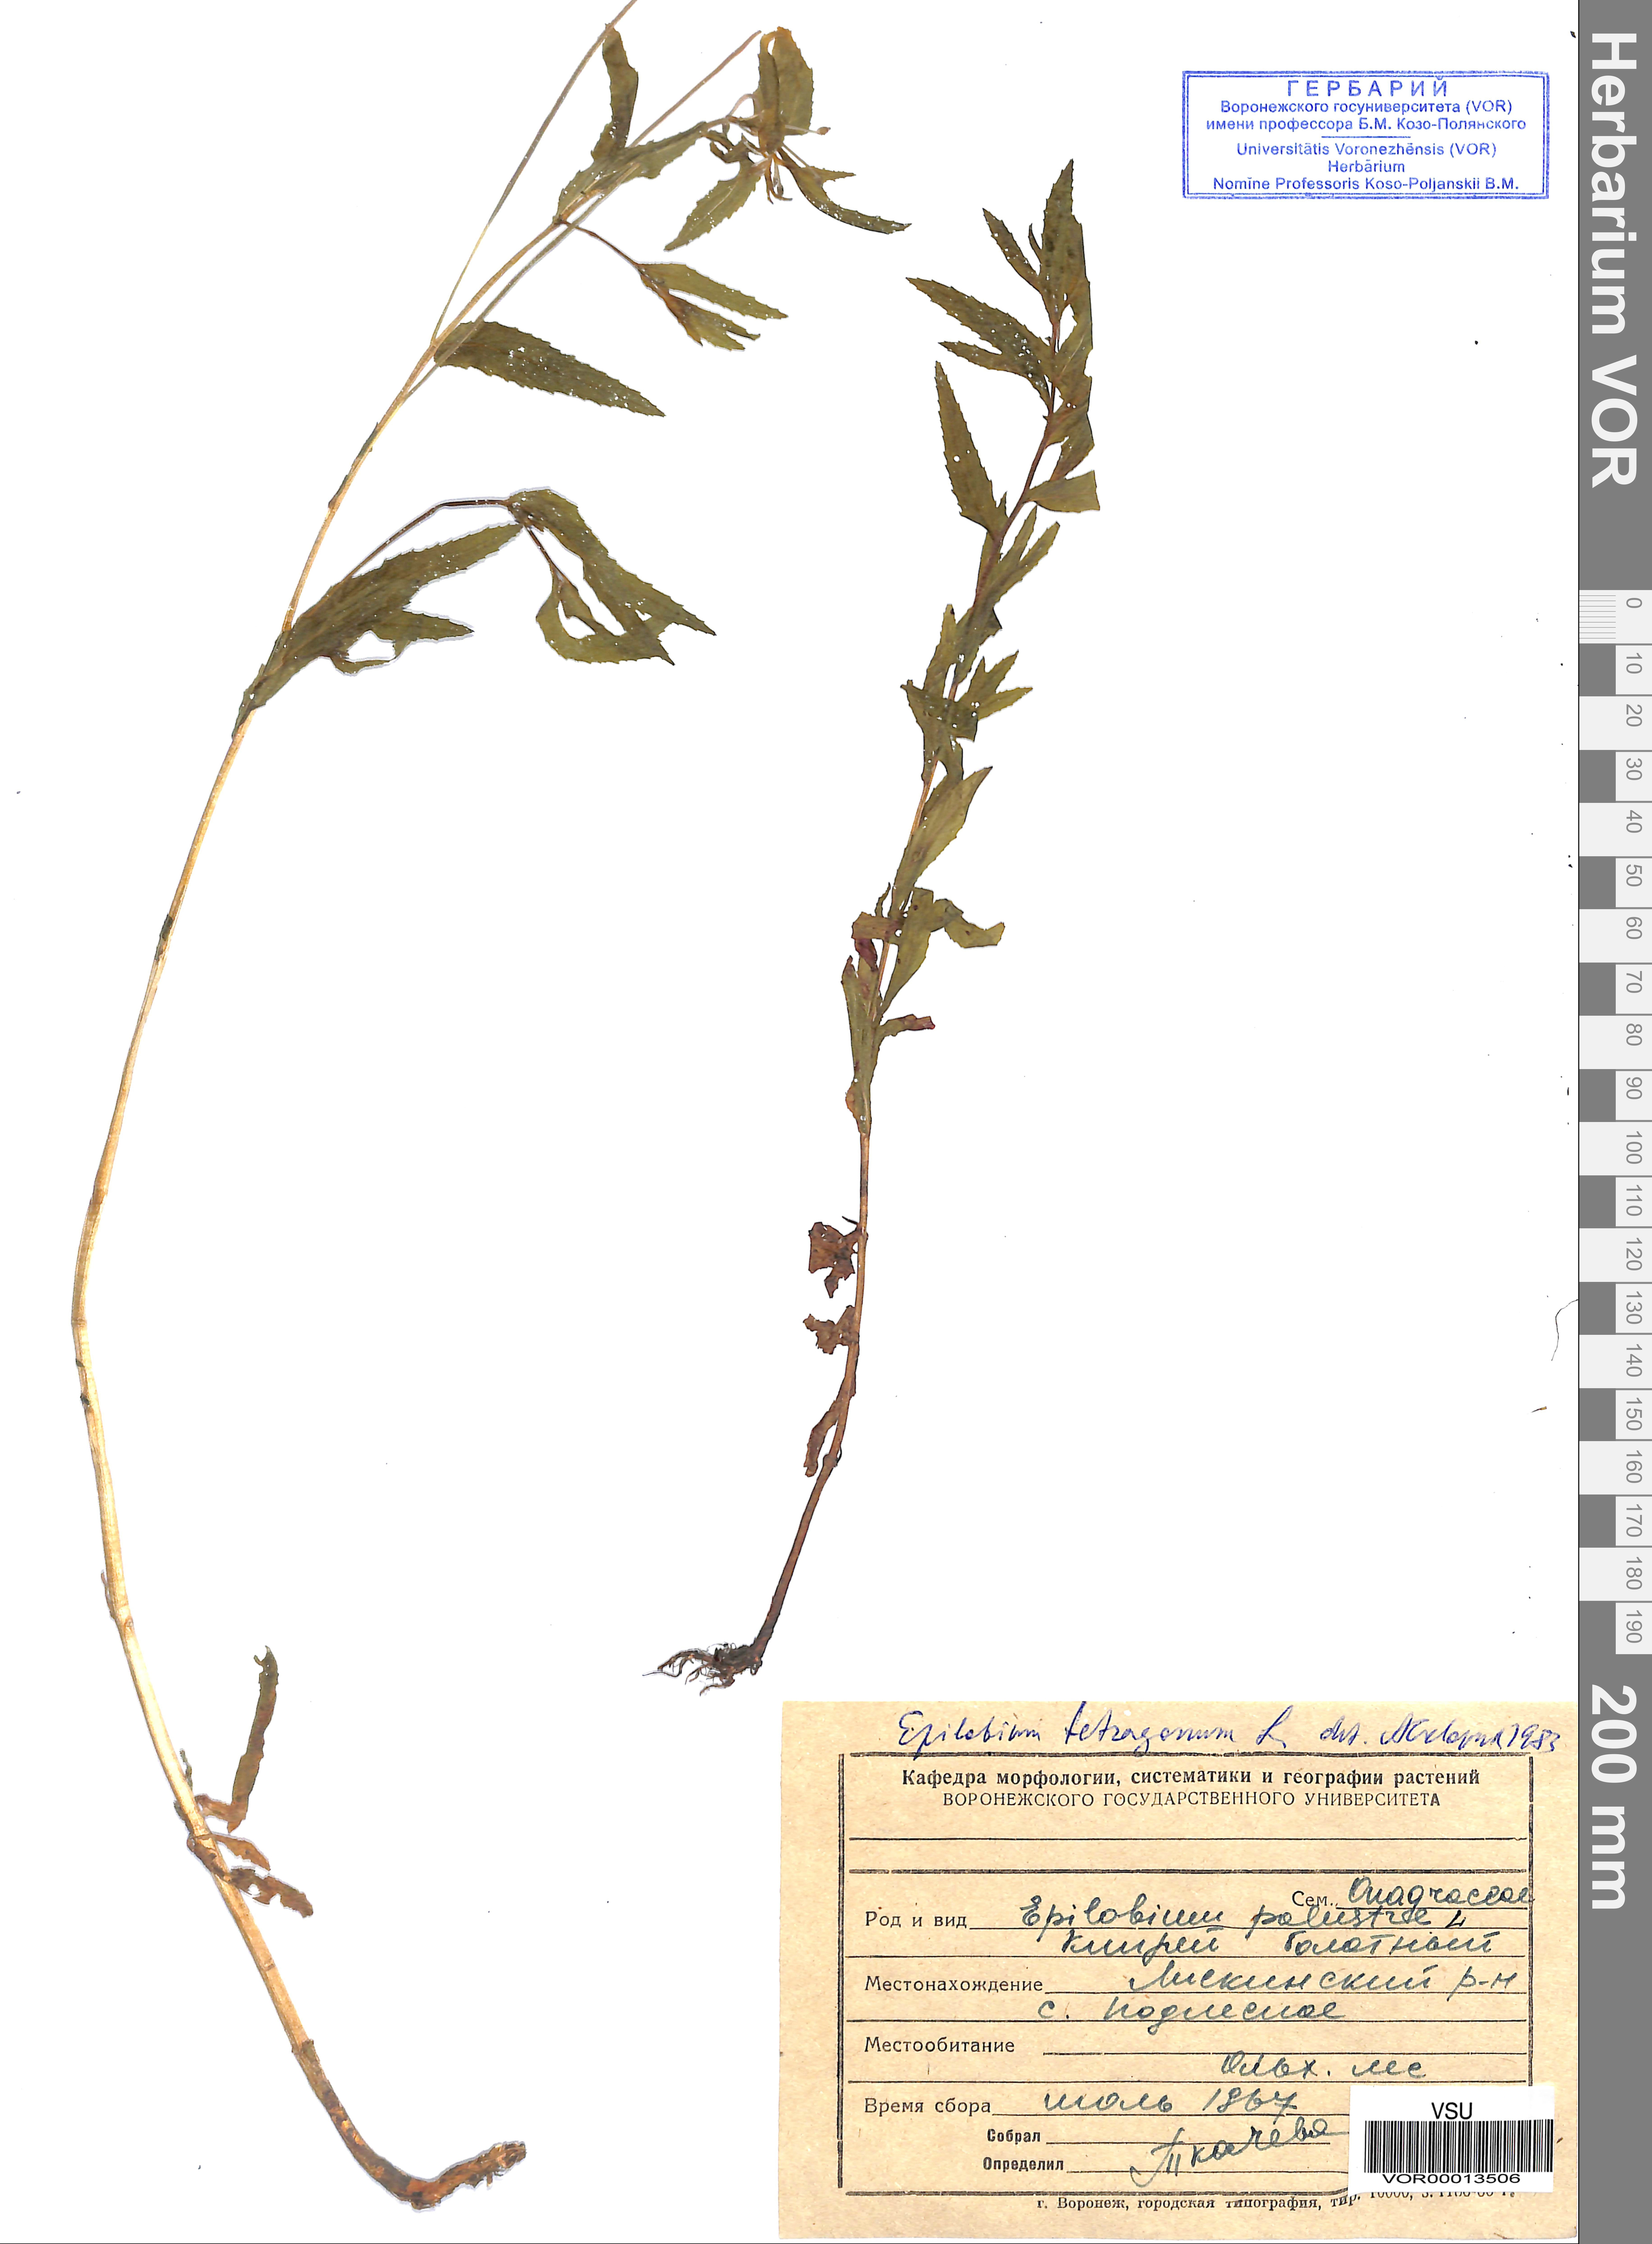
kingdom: Plantae
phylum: Tracheophyta
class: Magnoliopsida
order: Myrtales
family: Onagraceae
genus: Epilobium
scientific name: Epilobium tetragonum
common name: Square-stemmed willowherb
